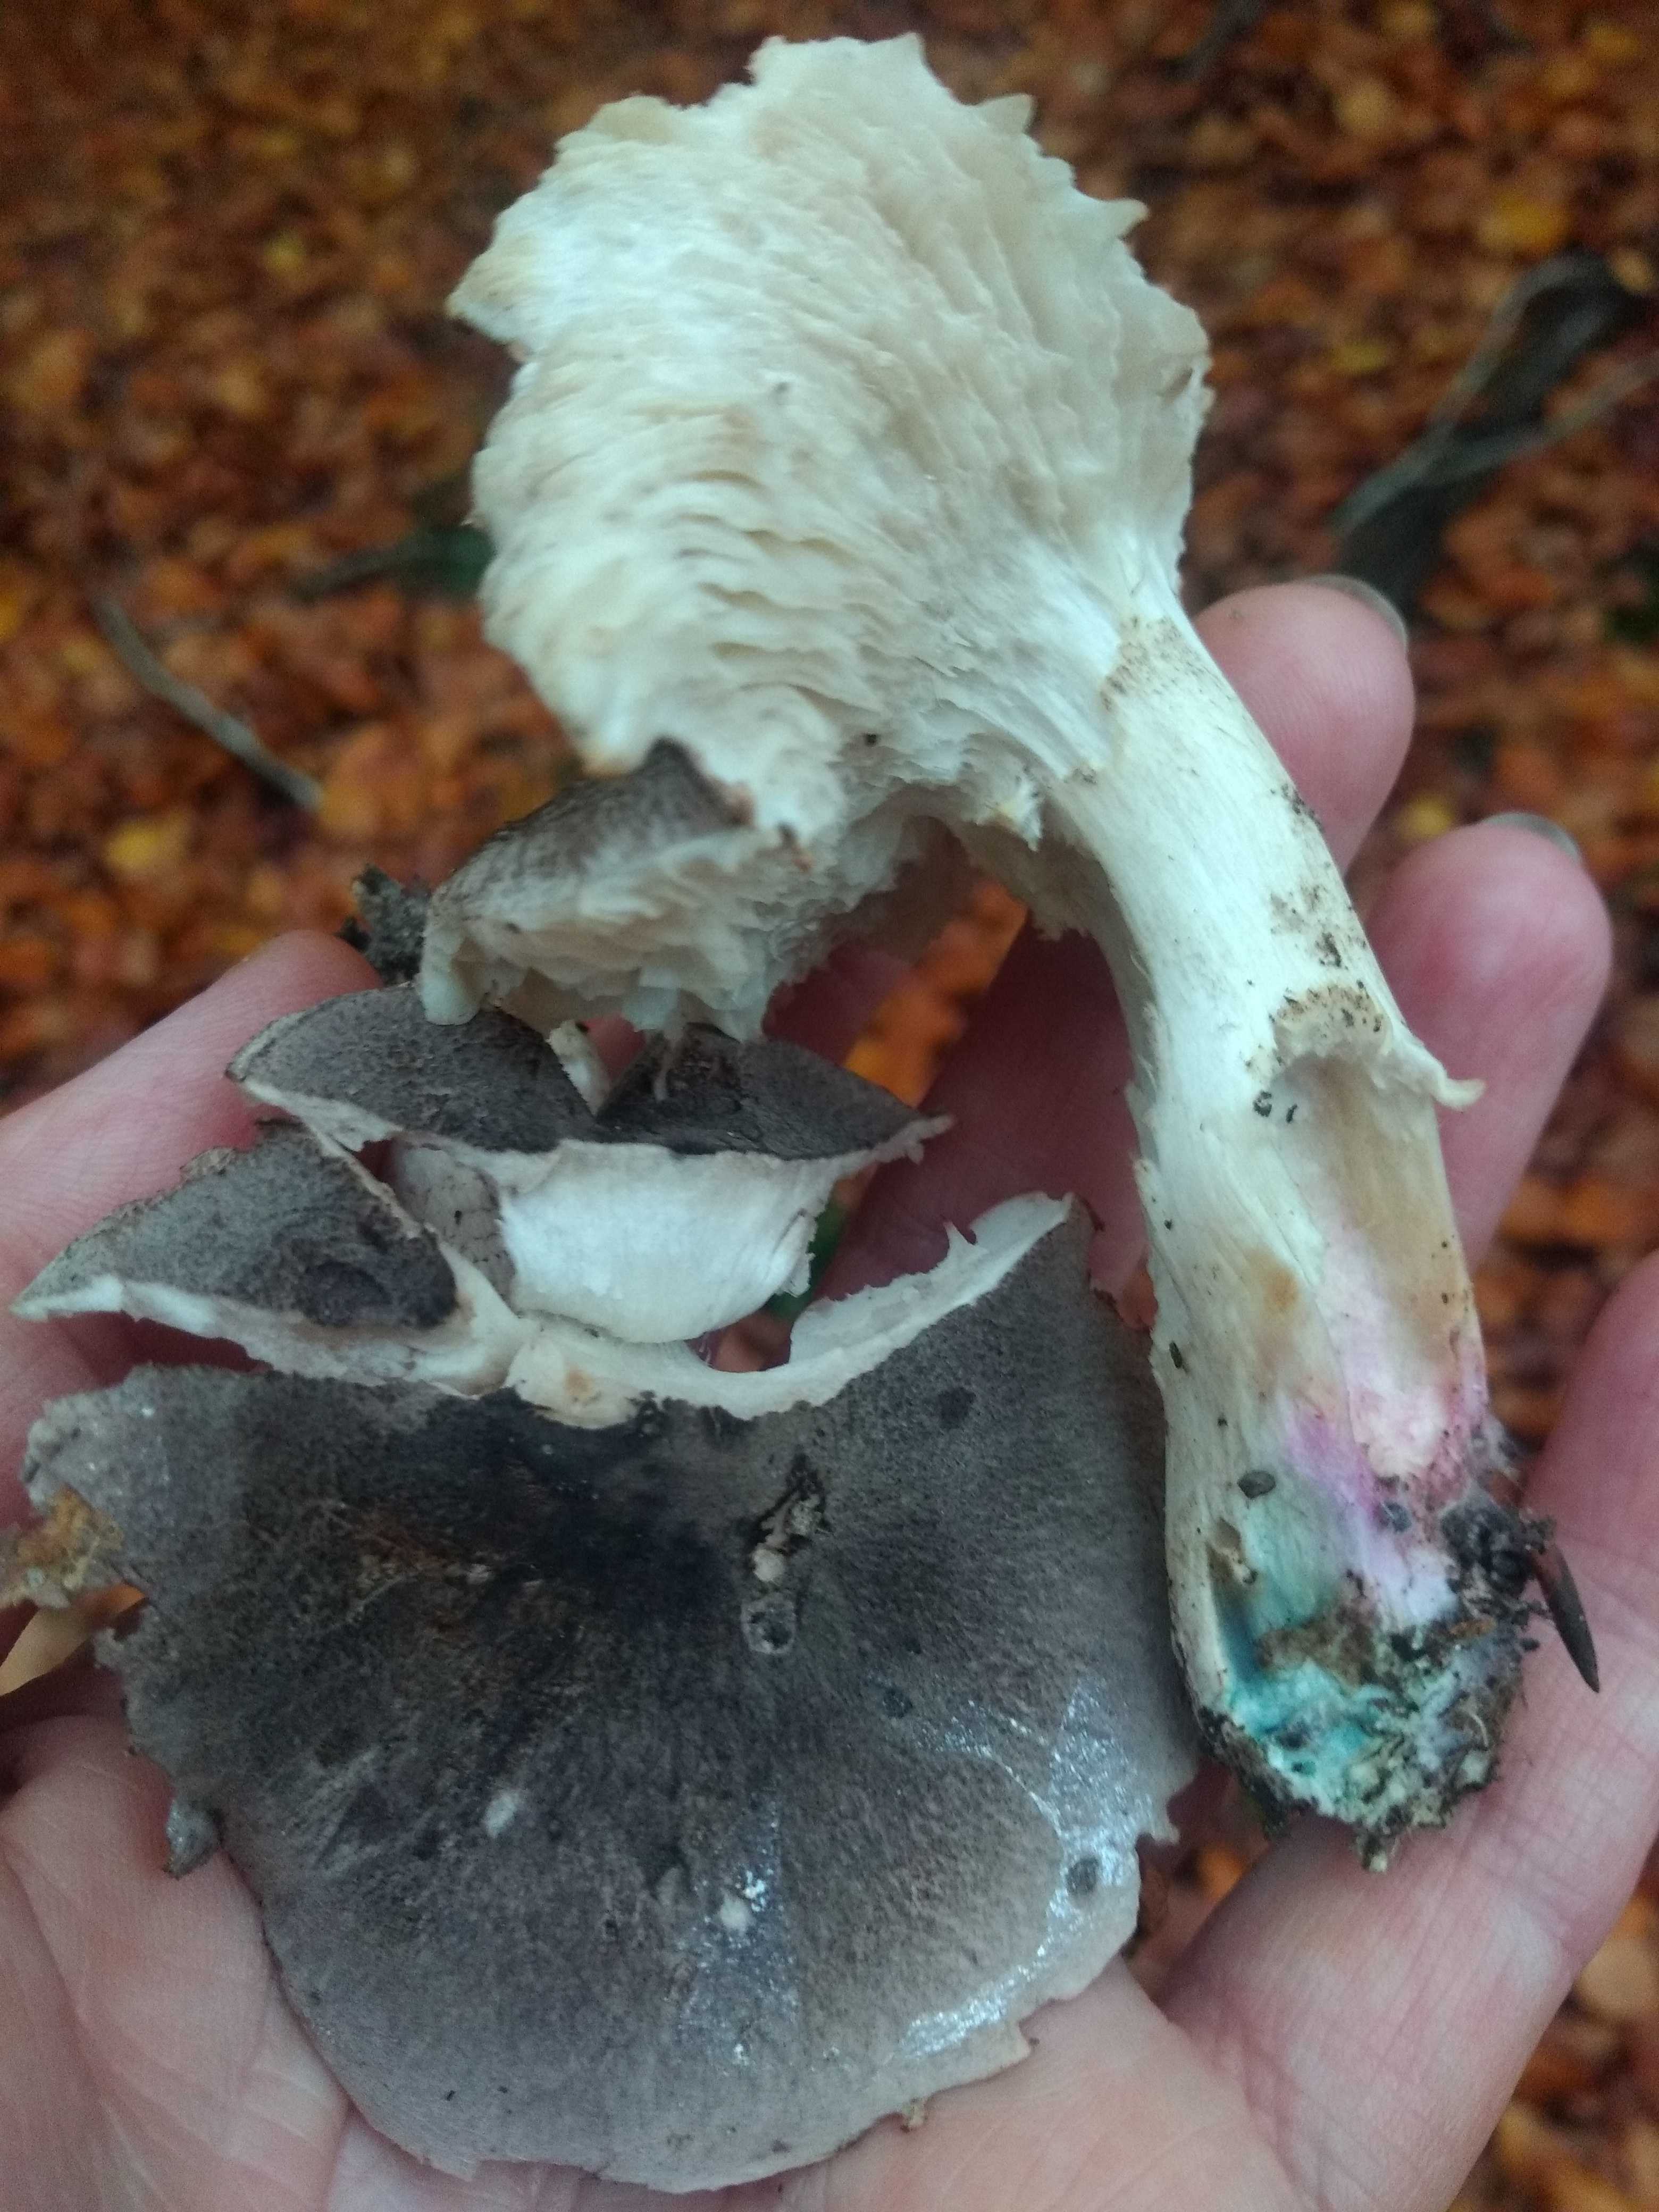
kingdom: Fungi
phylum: Basidiomycota
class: Agaricomycetes
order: Agaricales
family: Tricholomataceae
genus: Tricholoma
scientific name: Tricholoma orirubens
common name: rødbladet ridderhat
